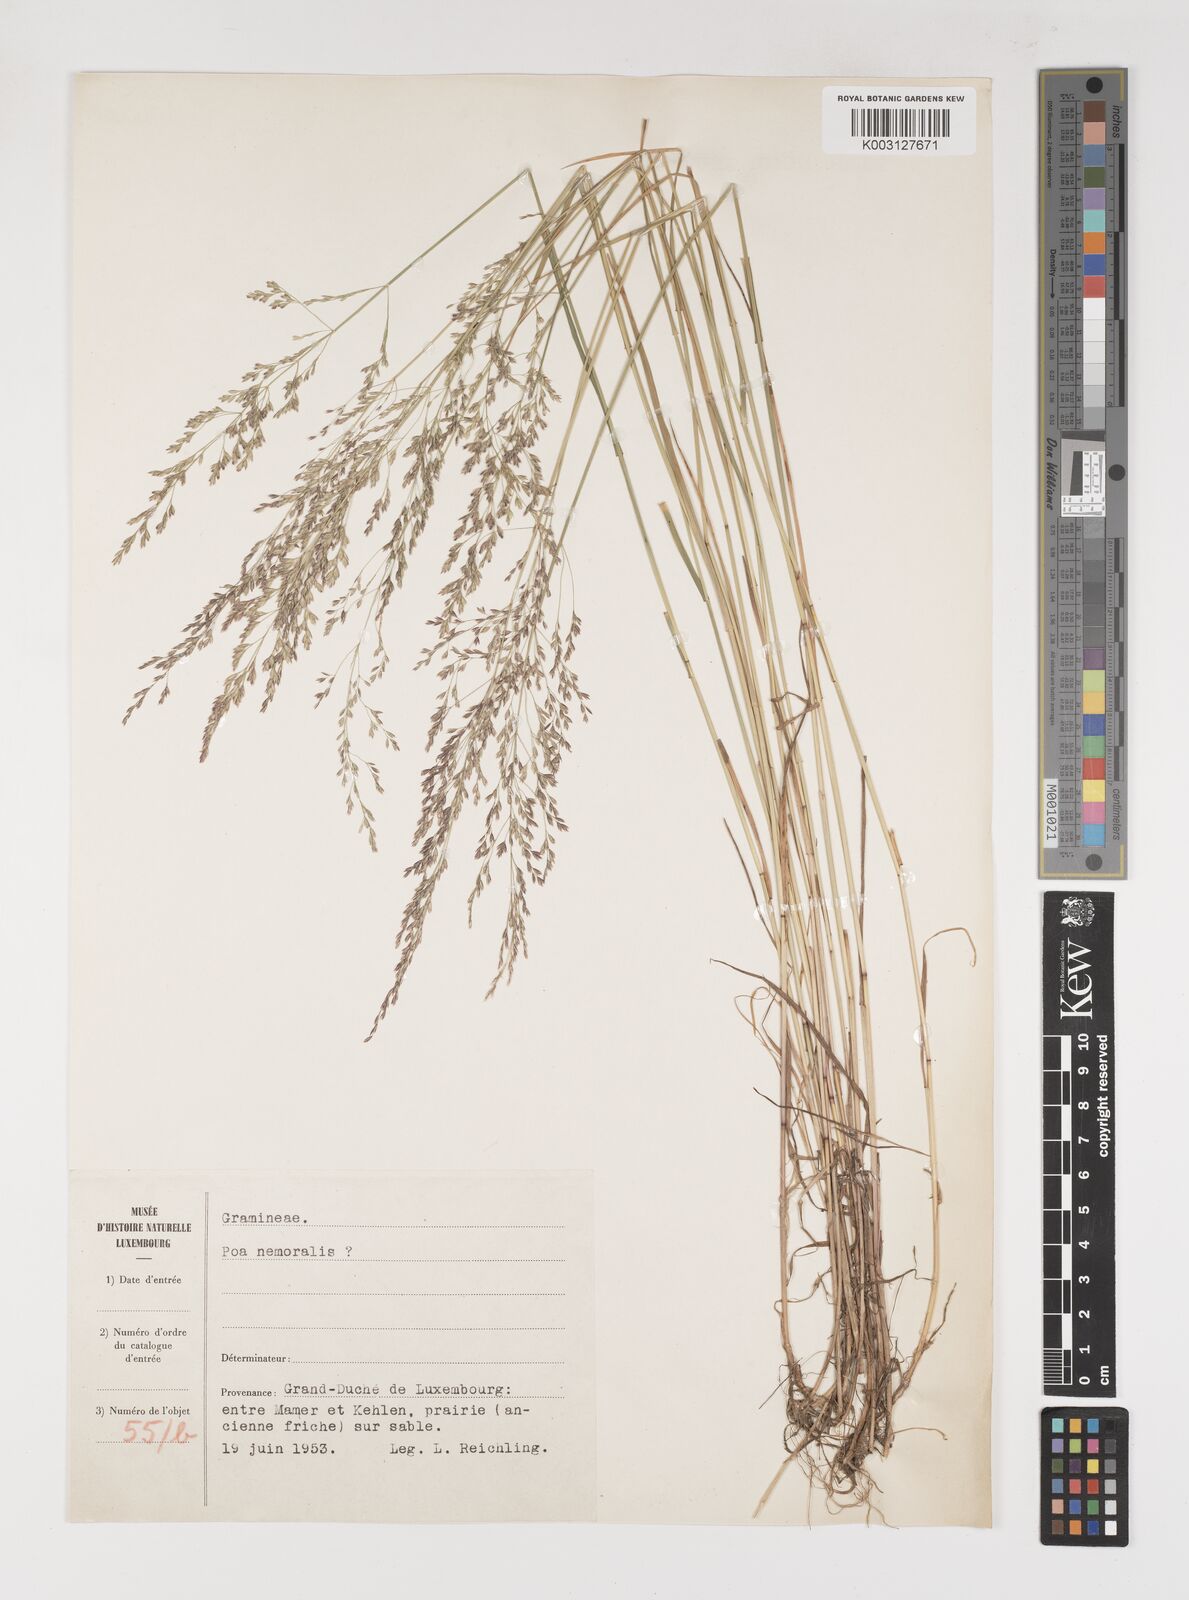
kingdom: Plantae
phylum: Tracheophyta
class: Liliopsida
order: Poales
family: Poaceae
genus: Poa
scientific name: Poa
